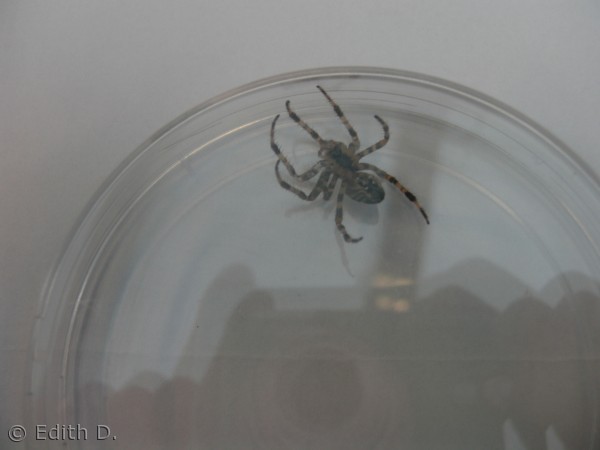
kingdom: Animalia
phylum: Arthropoda
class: Arachnida
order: Araneae
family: Araneidae
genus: Araneus
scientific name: Araneus diadematus
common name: Korsedderkop
